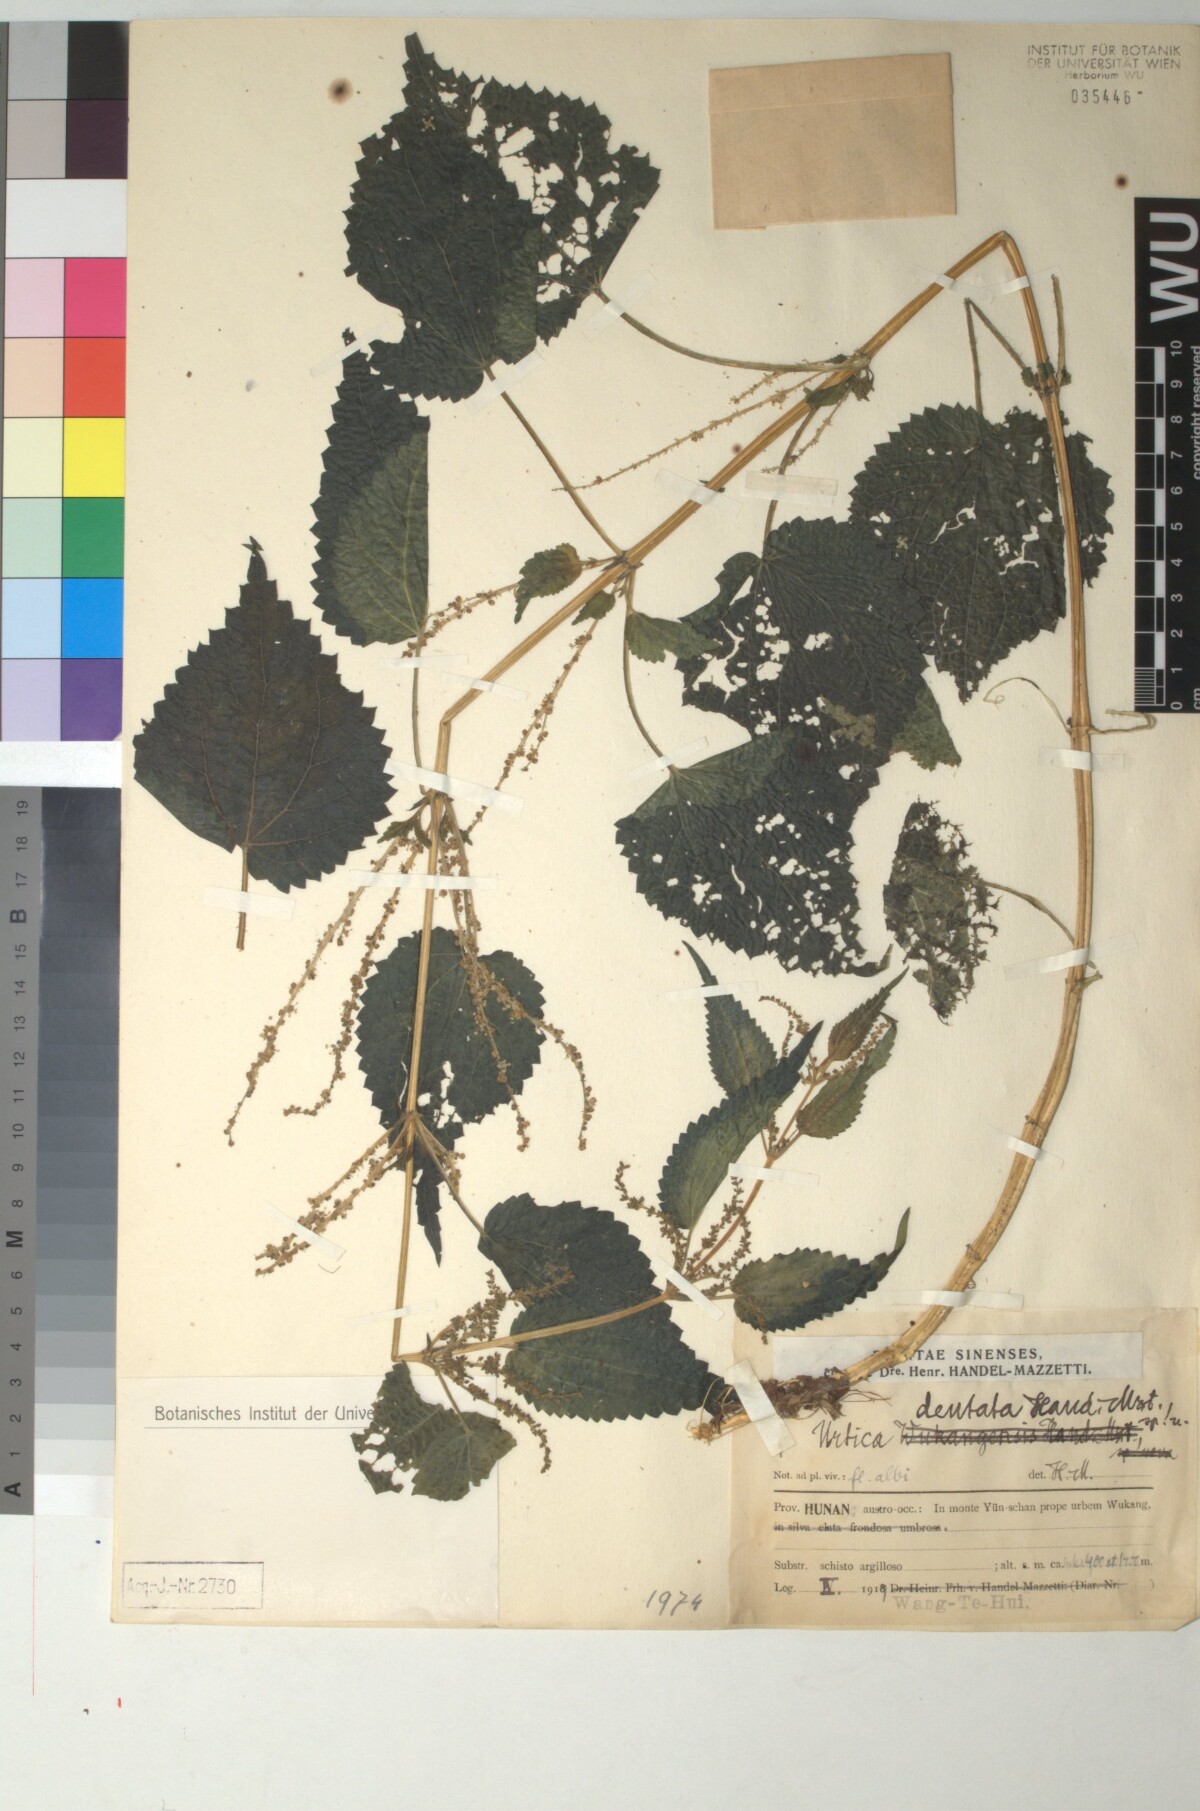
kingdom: Plantae
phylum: Tracheophyta
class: Magnoliopsida
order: Rosales
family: Urticaceae
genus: Urtica
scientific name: Urtica thunbergiana
